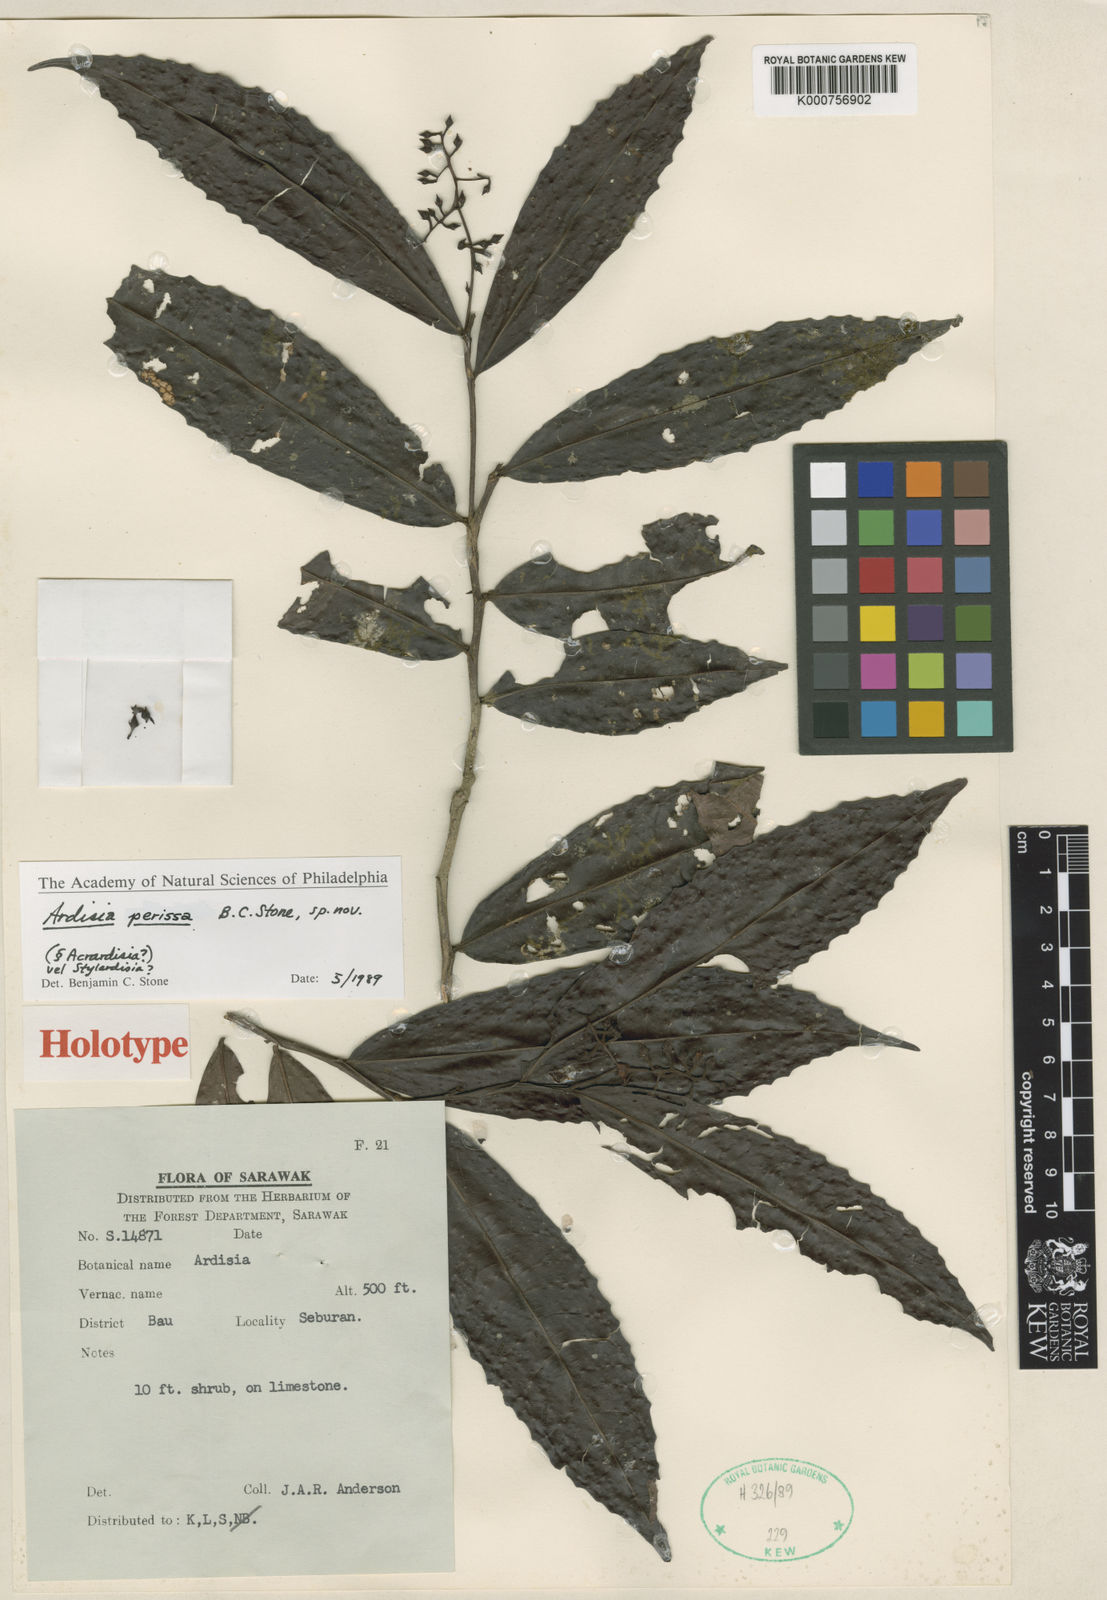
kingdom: Plantae
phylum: Tracheophyta
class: Magnoliopsida
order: Ericales
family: Primulaceae
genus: Ardisia
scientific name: Ardisia
